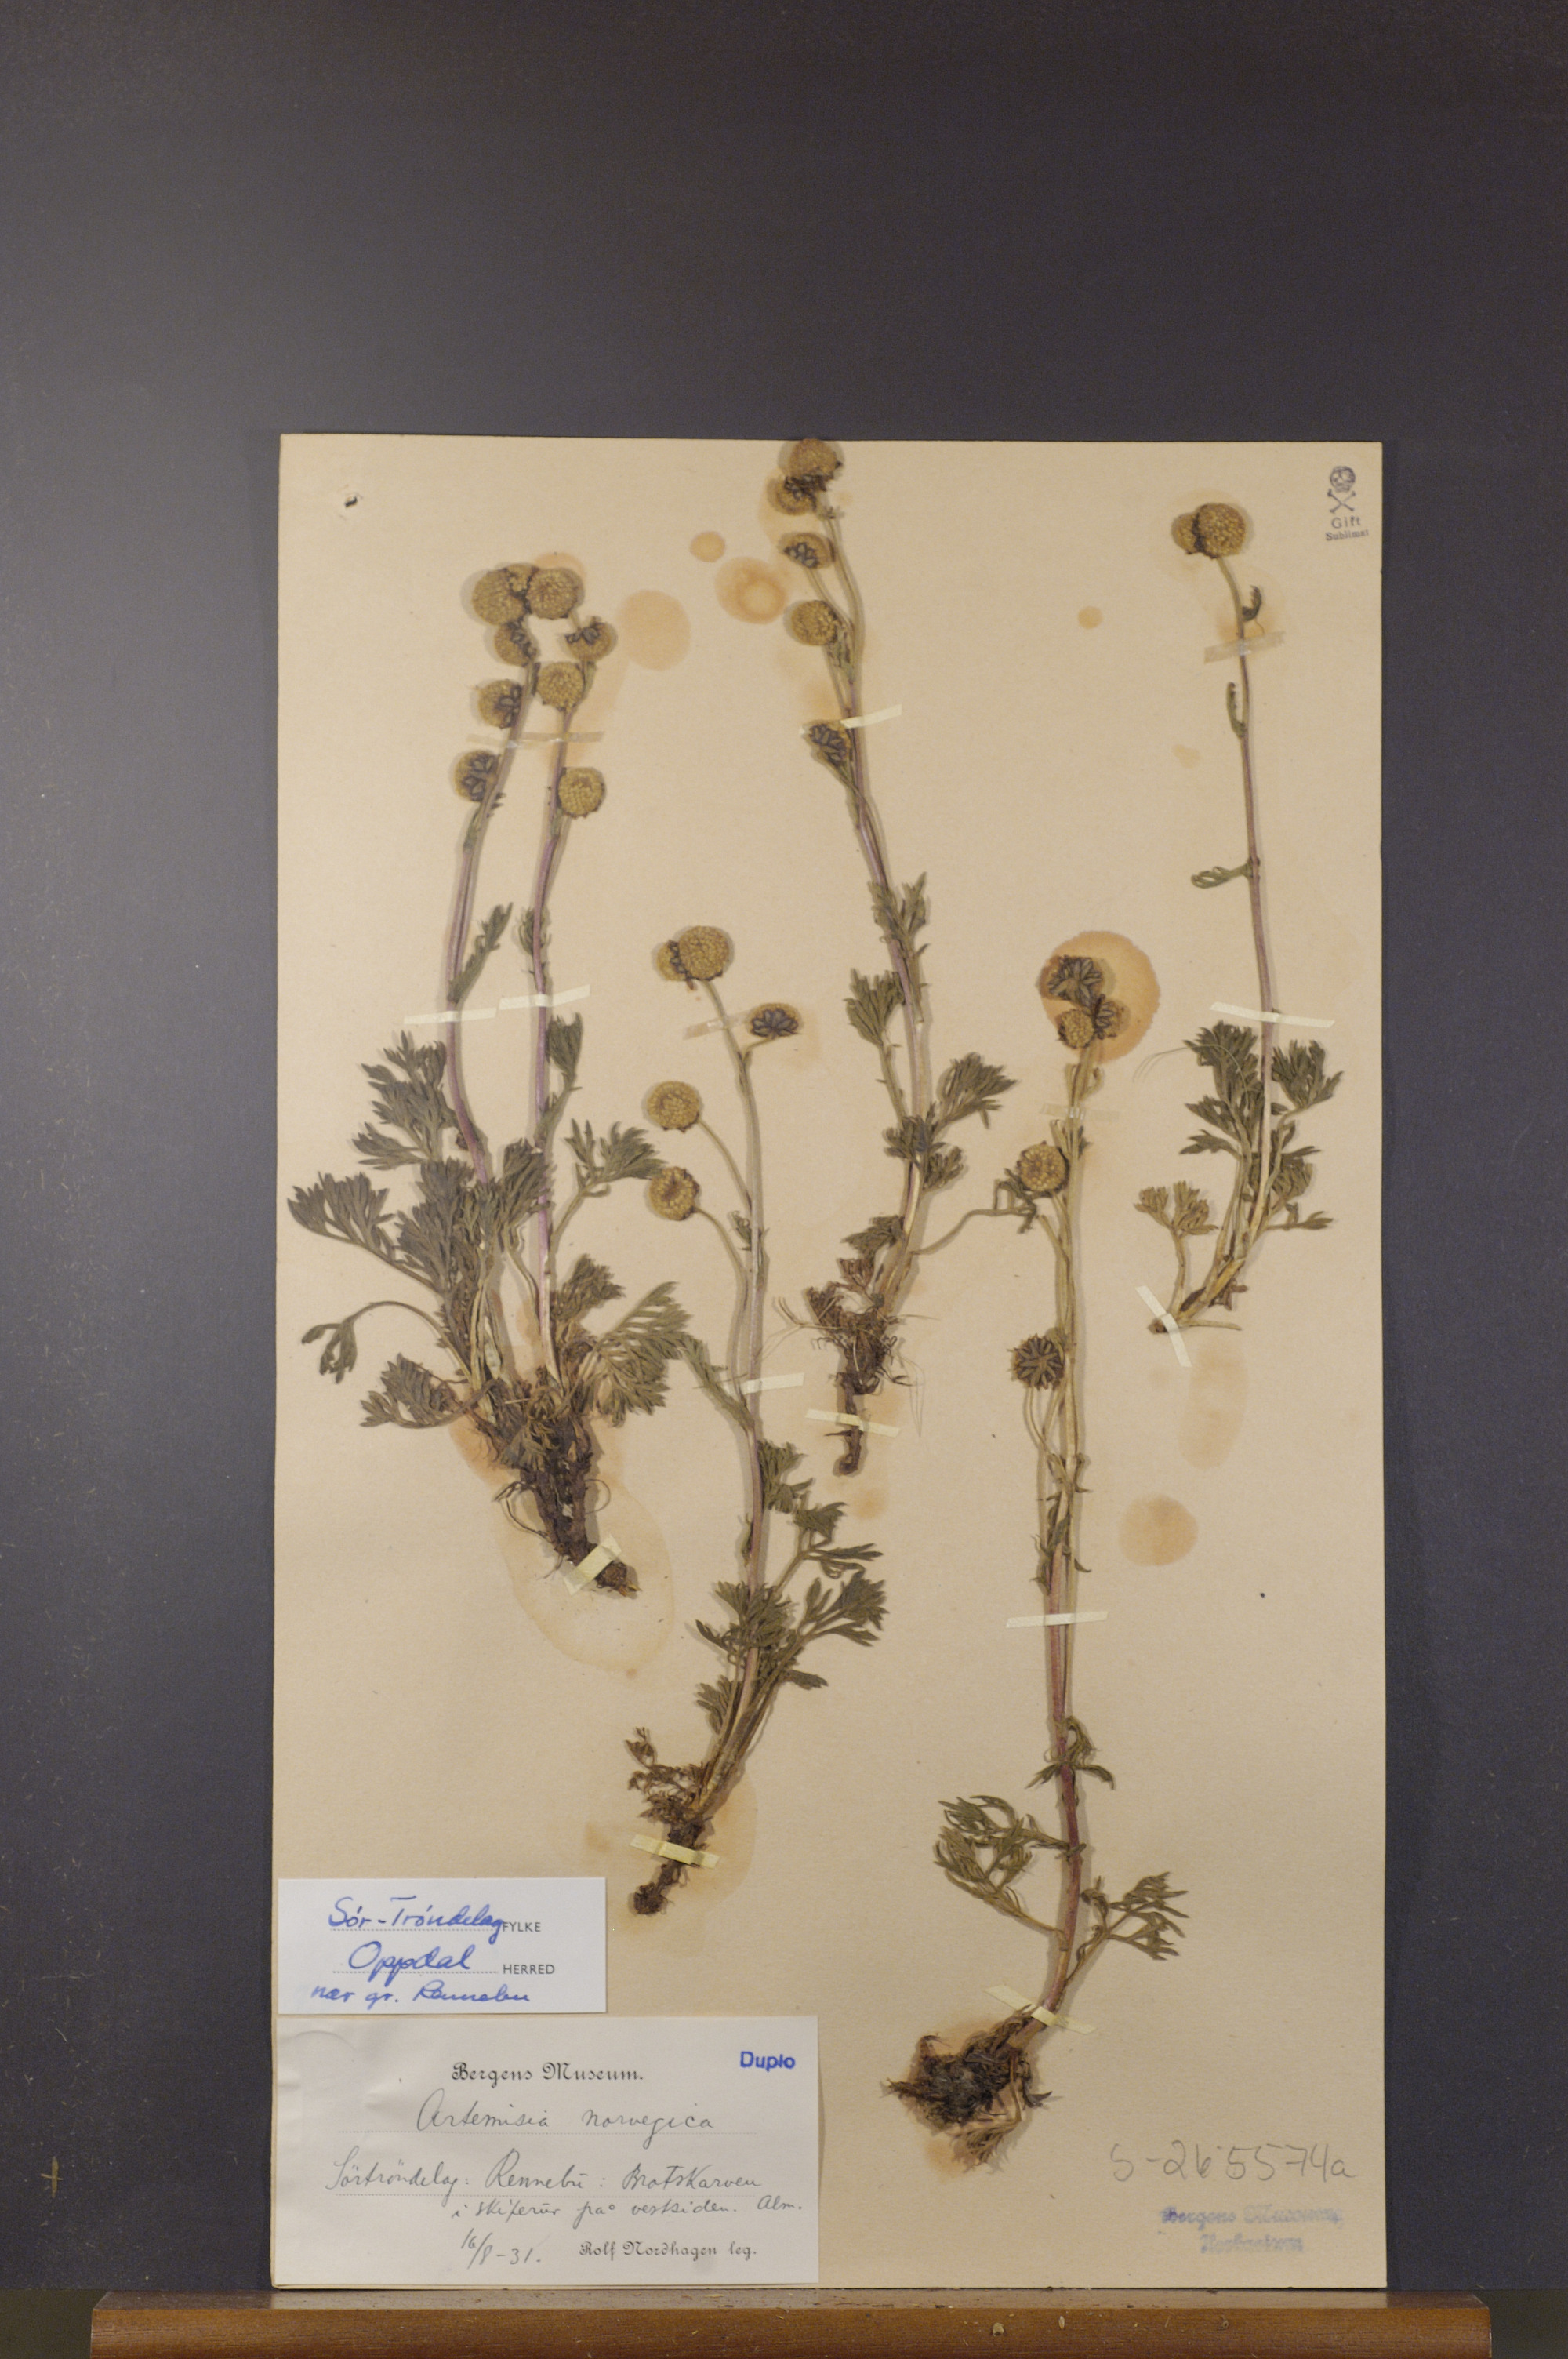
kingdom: Plantae
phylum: Tracheophyta
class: Magnoliopsida
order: Asterales
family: Asteraceae
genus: Artemisia
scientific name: Artemisia norvegica
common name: Norwegian mugwort
